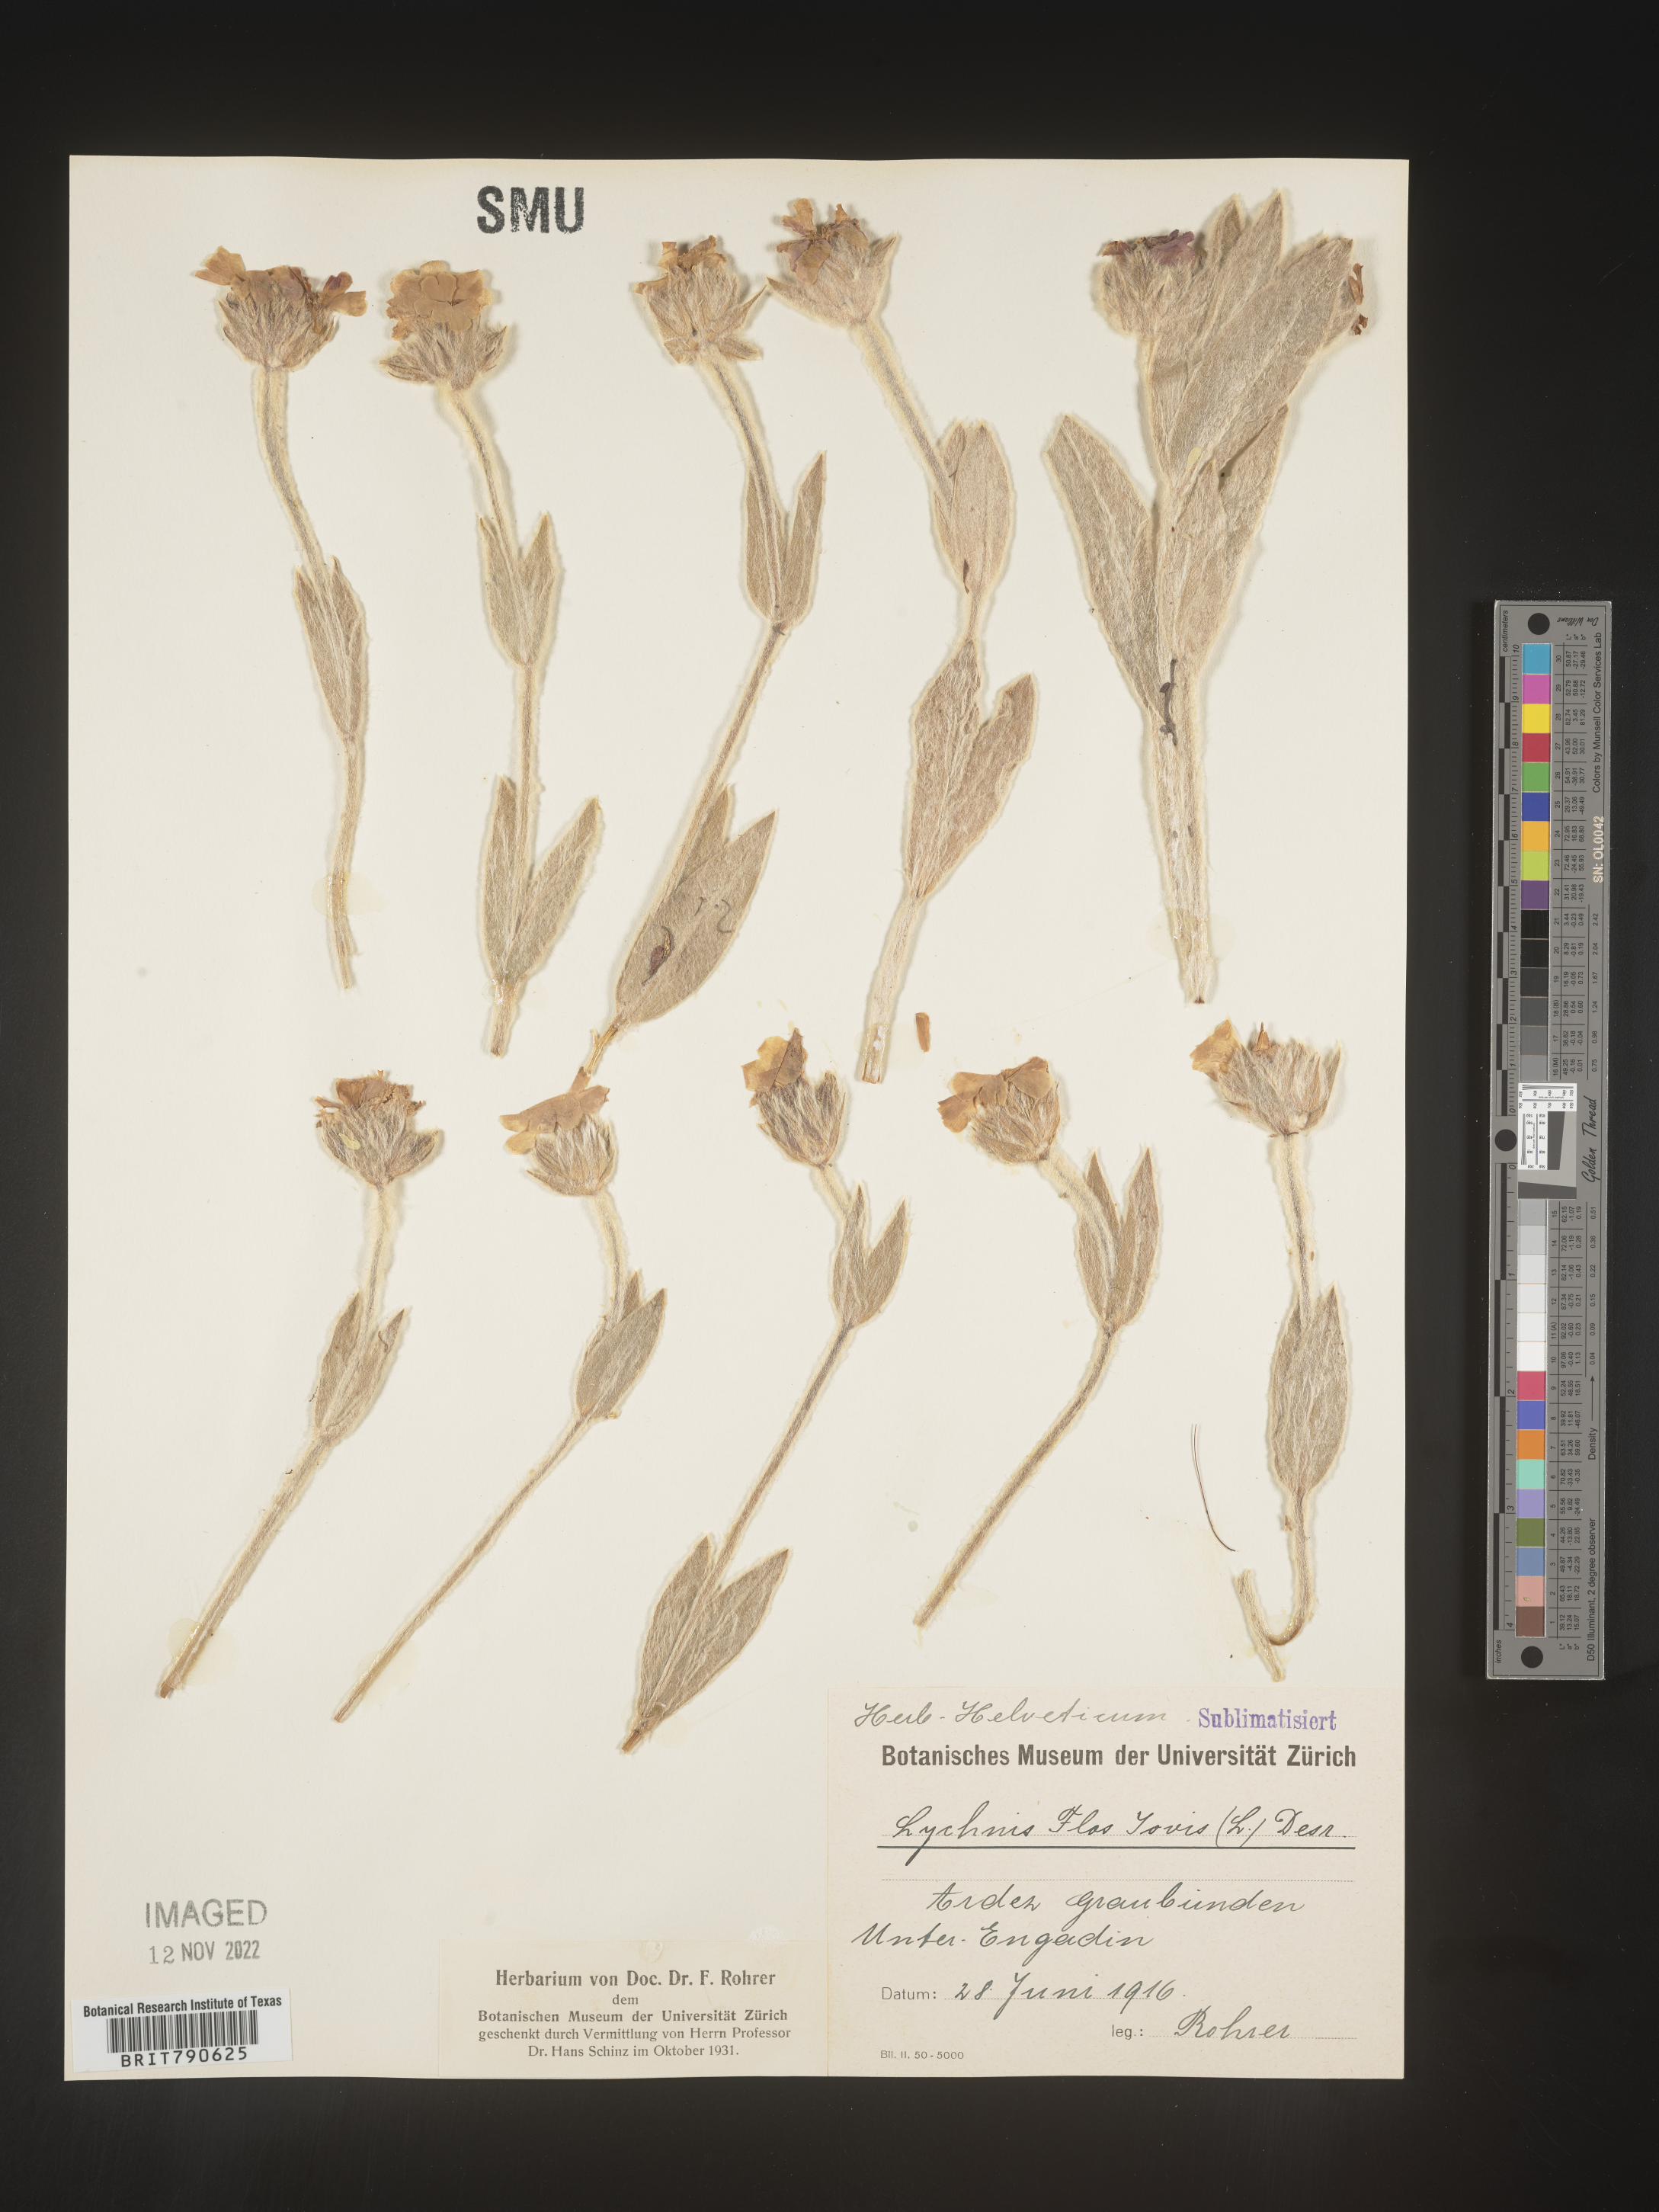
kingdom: Plantae
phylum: Tracheophyta
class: Magnoliopsida
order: Caryophyllales
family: Caryophyllaceae
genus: Silene
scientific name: Silene
